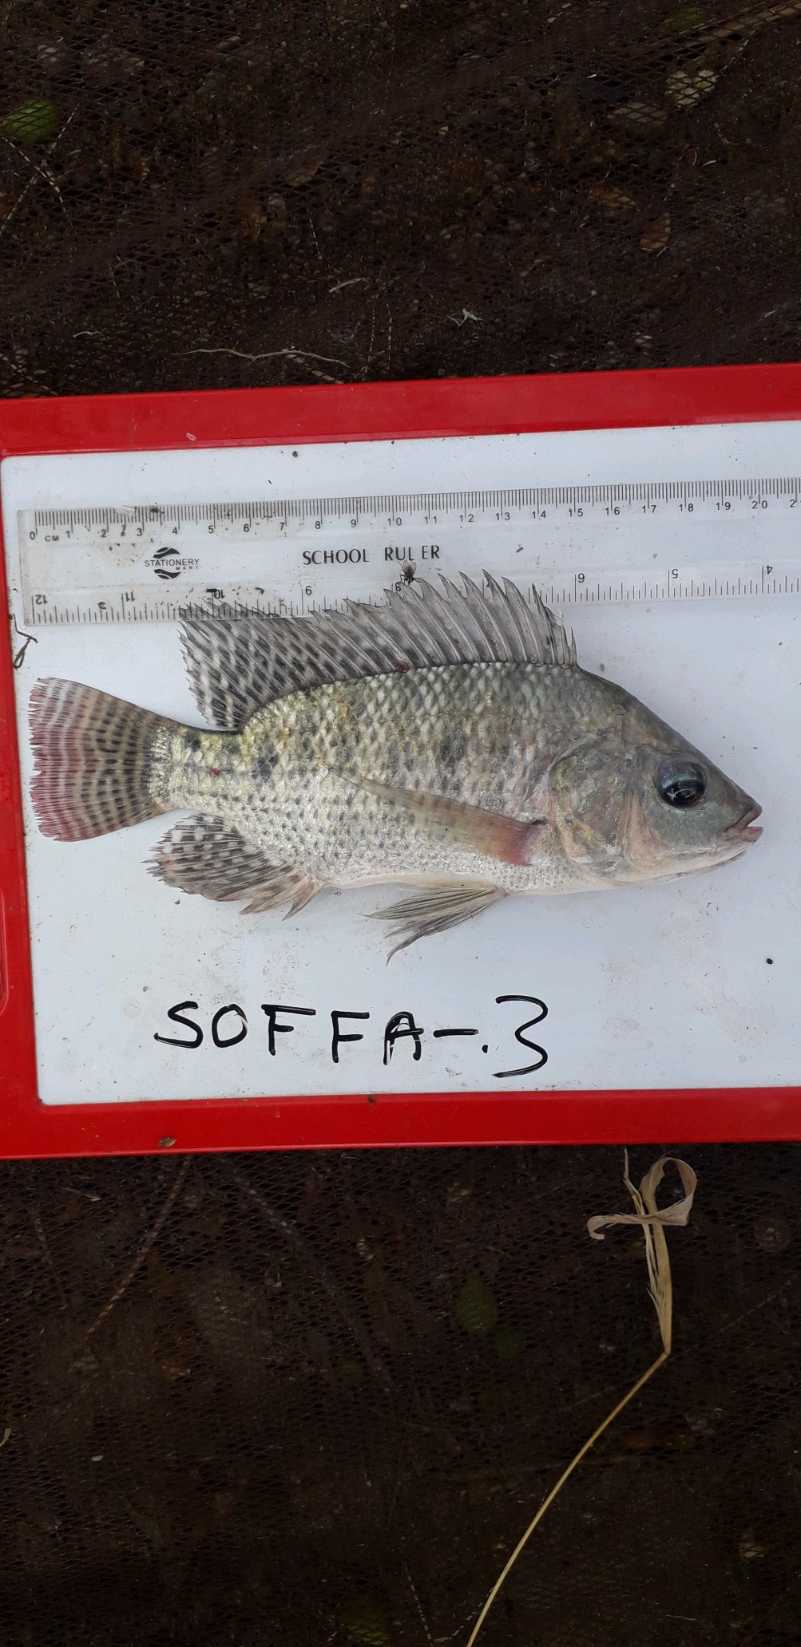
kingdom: Animalia
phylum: Chordata
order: Perciformes
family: Cichlidae
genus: Oreochromis
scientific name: Oreochromis niloticus
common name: Nile tilapia
